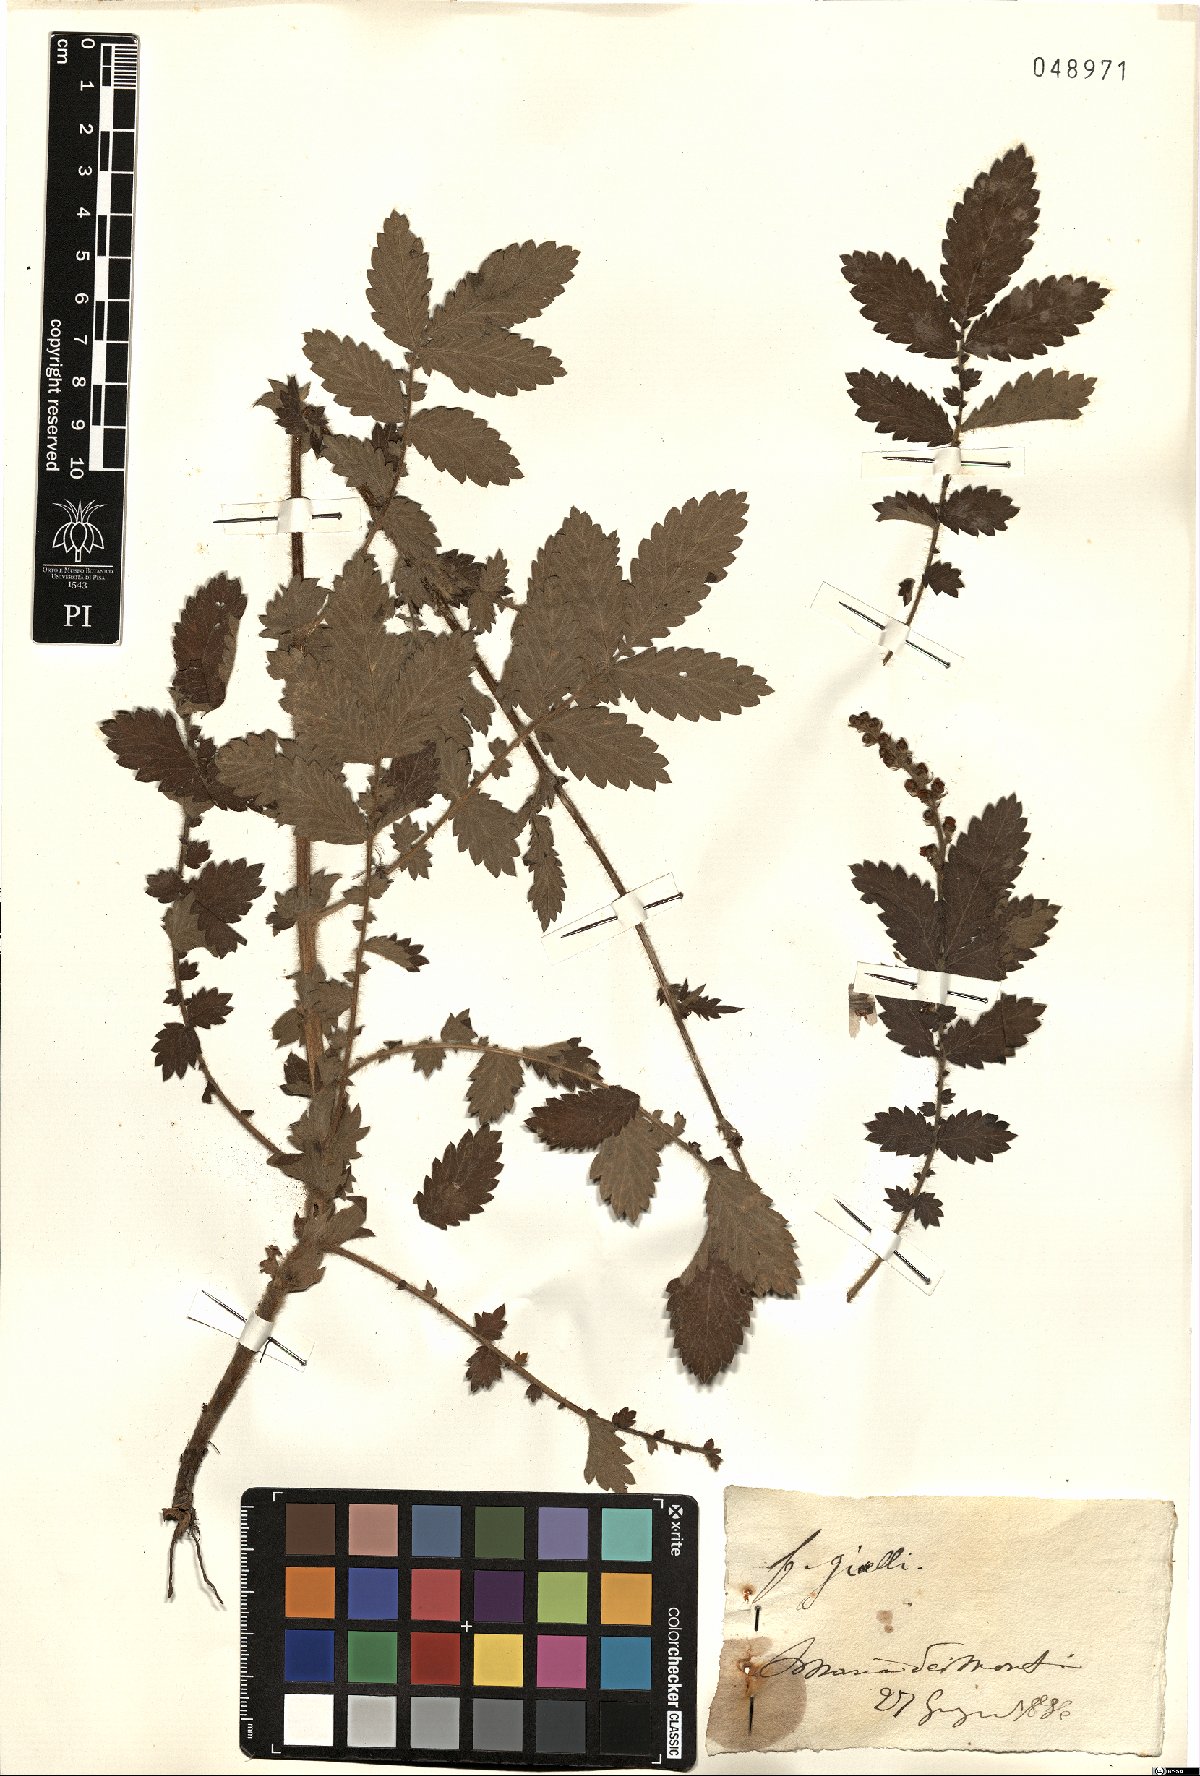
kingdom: Plantae
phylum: Tracheophyta
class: Magnoliopsida
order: Rosales
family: Rosaceae
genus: Agrimonia
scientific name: Agrimonia
